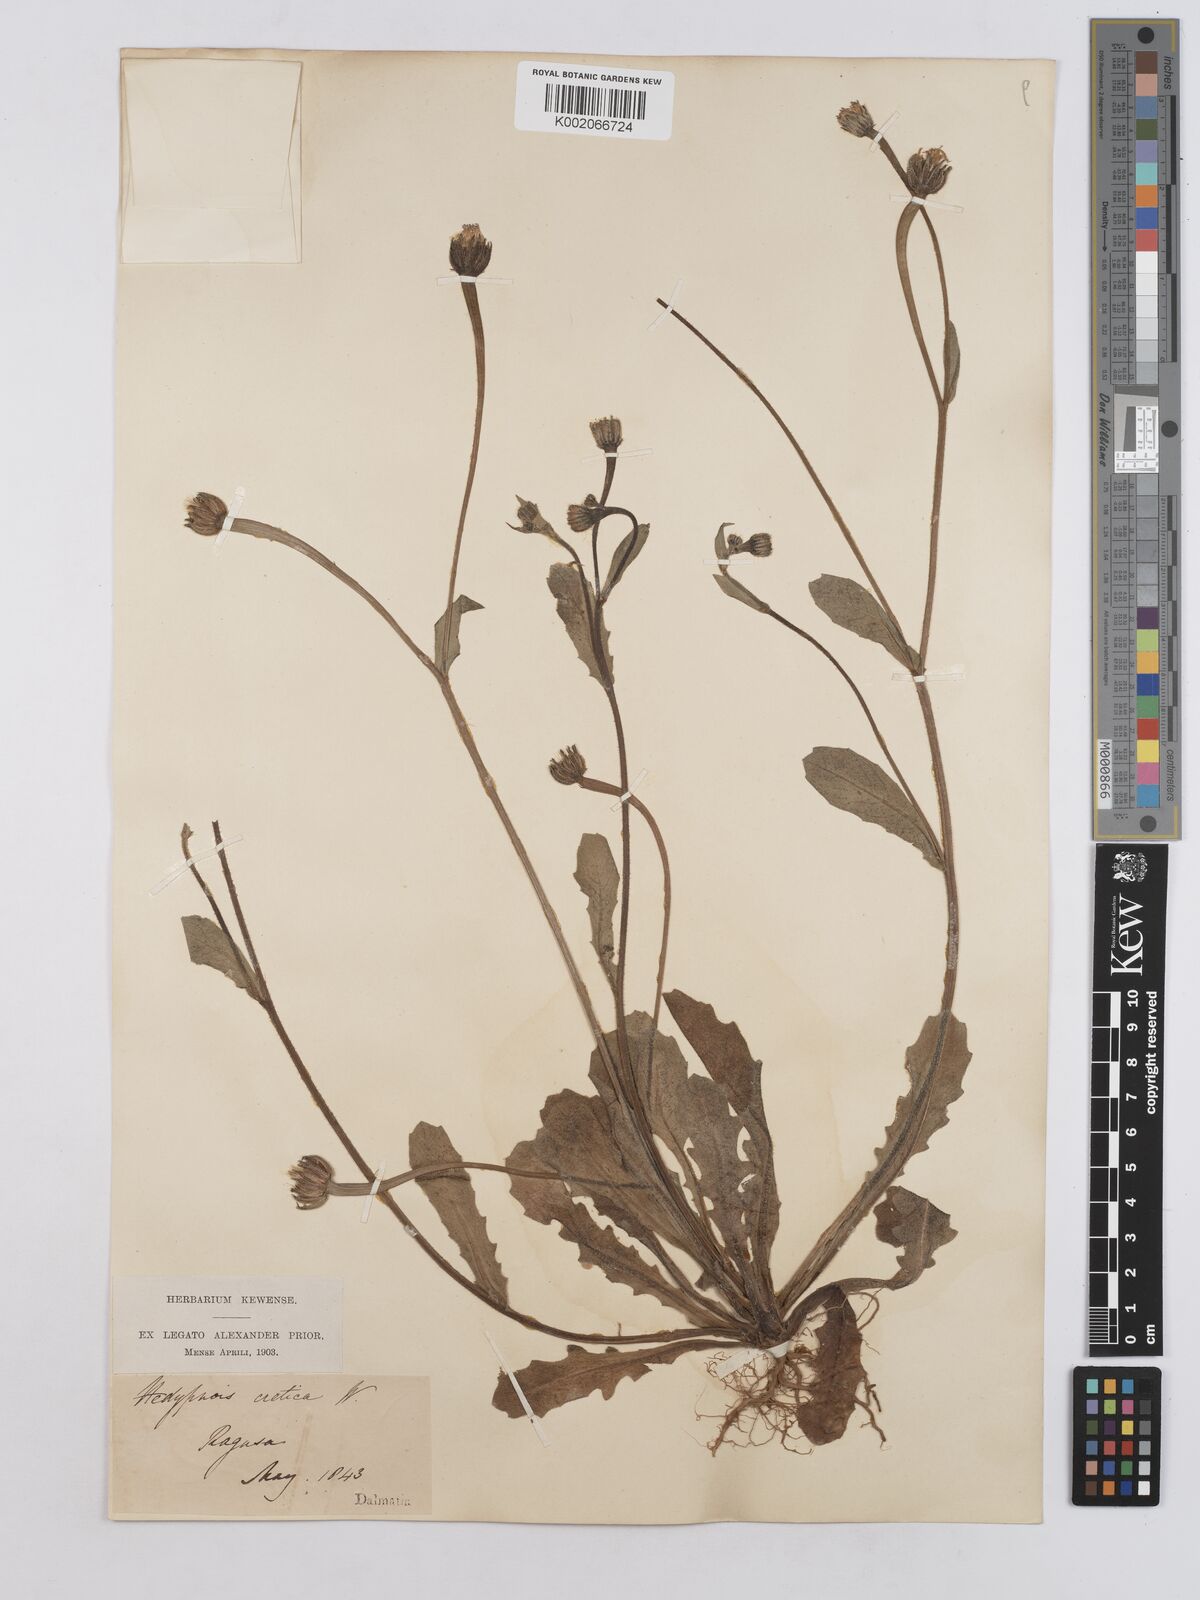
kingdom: Plantae
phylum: Tracheophyta
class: Magnoliopsida
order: Asterales
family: Asteraceae
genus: Hedypnois
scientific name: Hedypnois rhagadioloides
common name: Cretan weed
